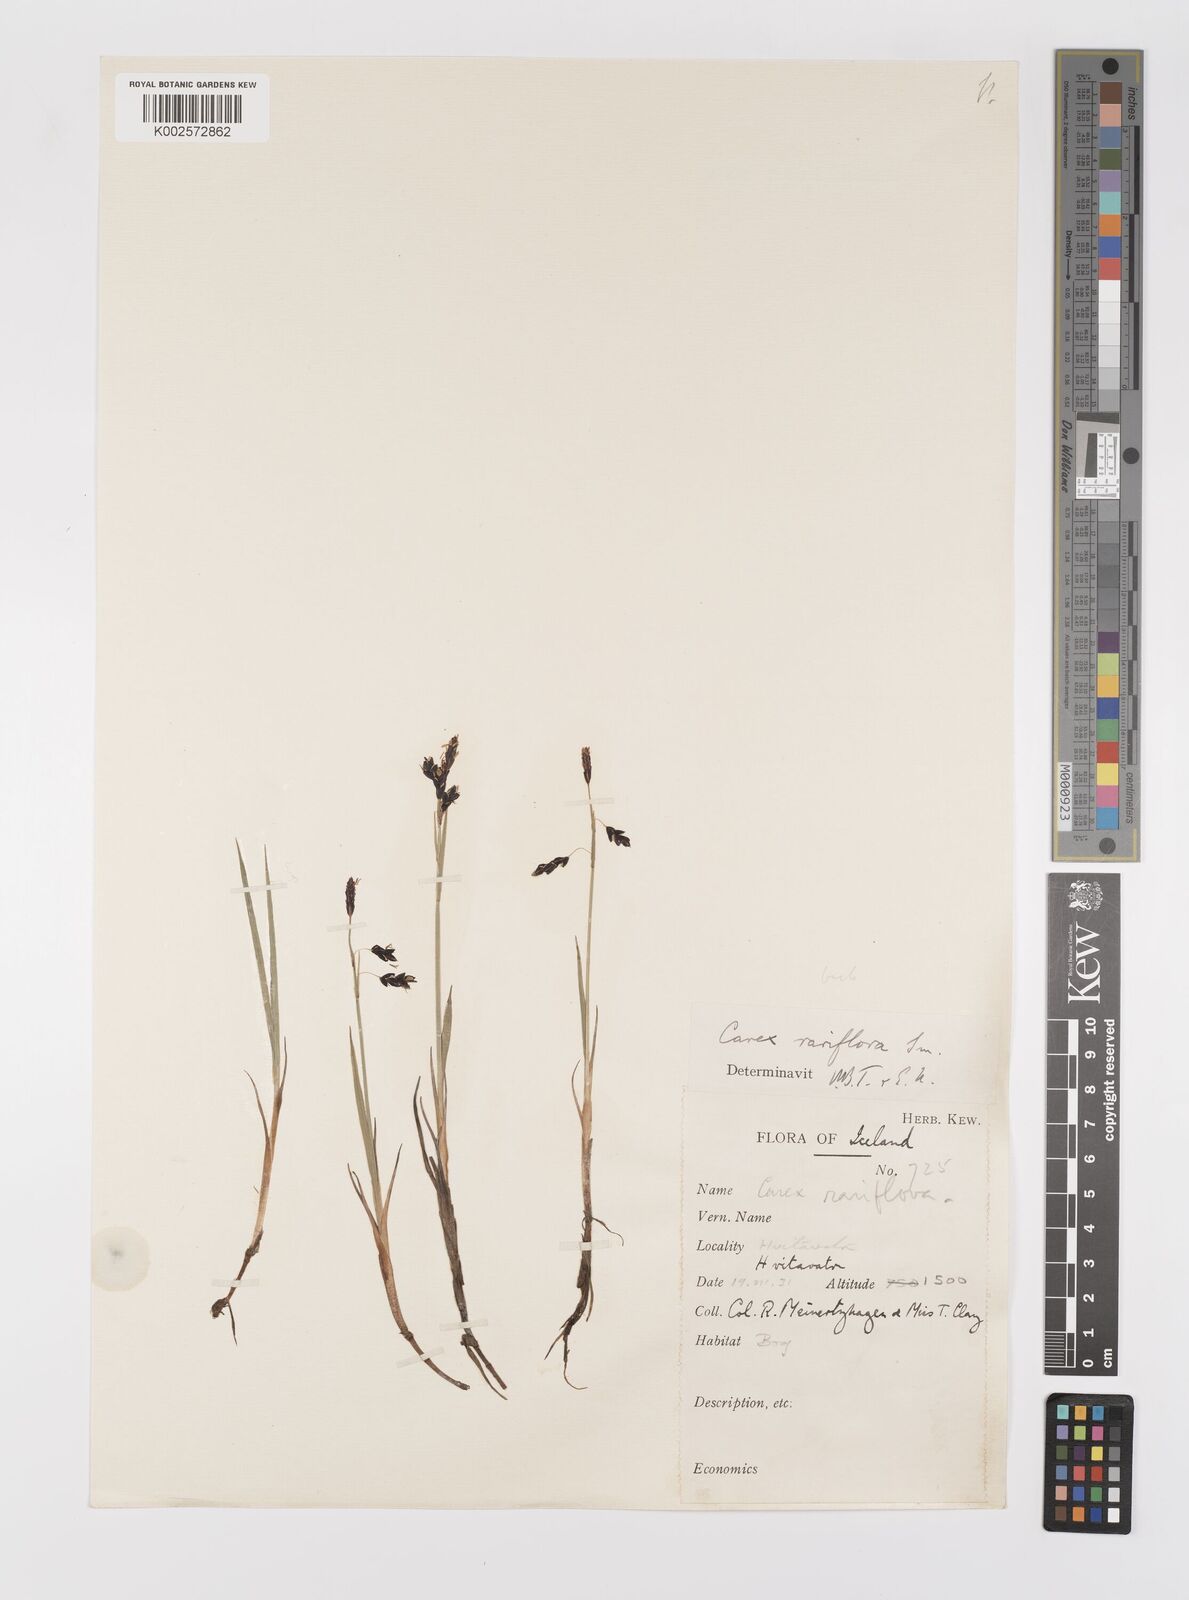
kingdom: Plantae
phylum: Tracheophyta
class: Liliopsida
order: Poales
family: Cyperaceae
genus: Carex
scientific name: Carex rariflora
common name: Loose-flowered alpine sedge
